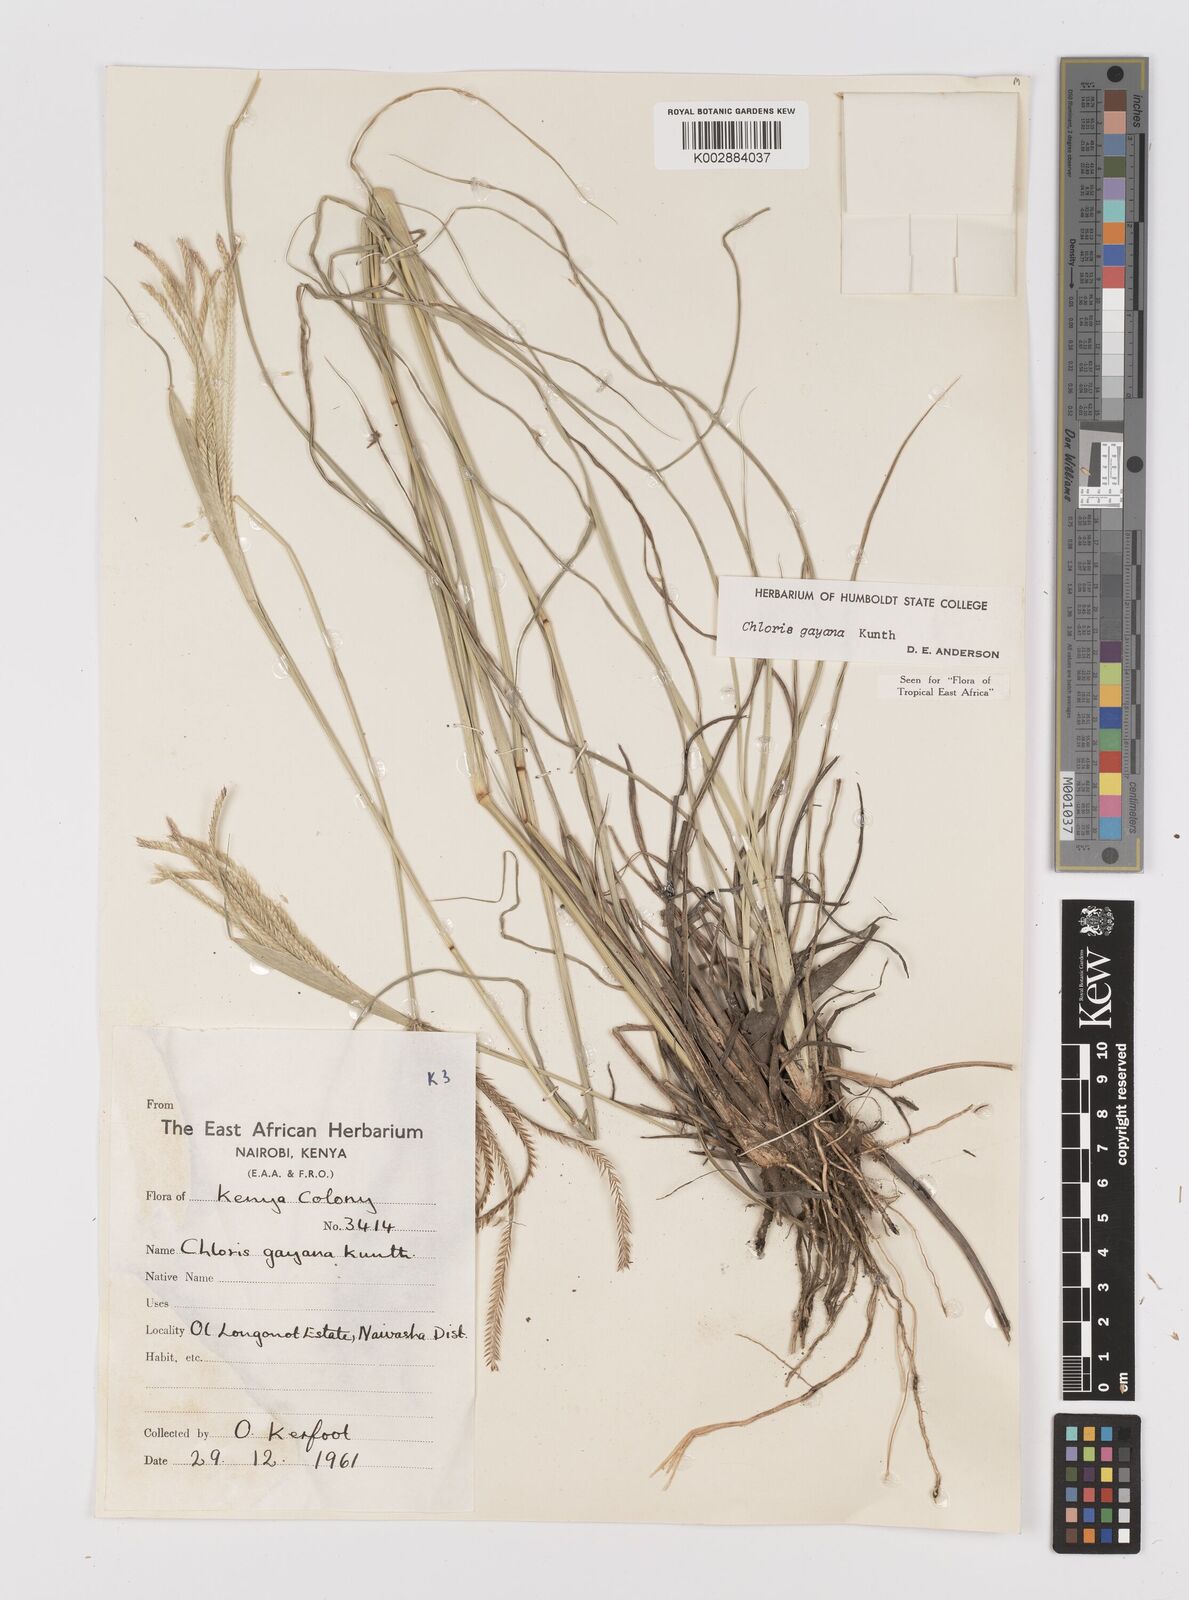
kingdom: Plantae
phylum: Tracheophyta
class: Liliopsida
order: Poales
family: Poaceae
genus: Chloris
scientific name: Chloris gayana
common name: Rhodes grass
